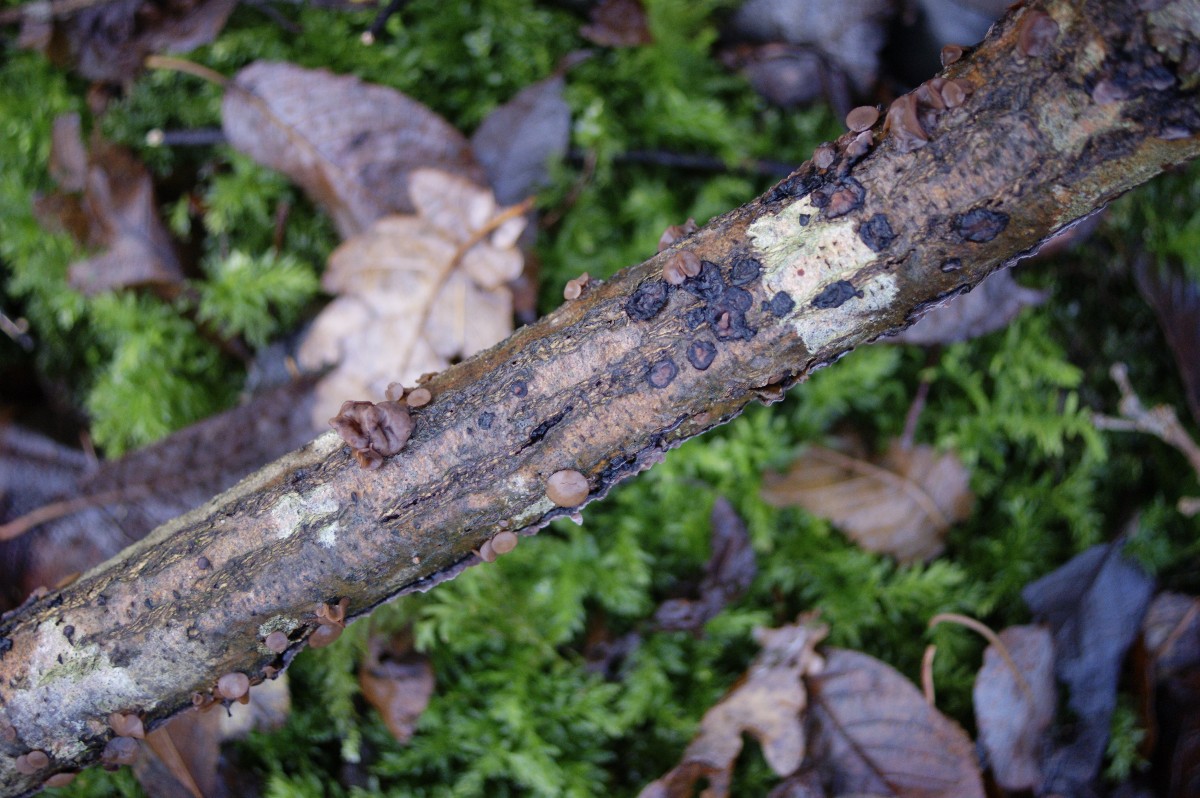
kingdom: Fungi
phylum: Ascomycota
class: Leotiomycetes
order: Helotiales
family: Rutstroemiaceae
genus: Rutstroemia
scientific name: Rutstroemia firma
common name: gren-brunskive
